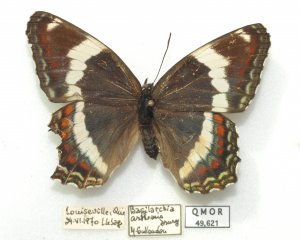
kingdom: Animalia
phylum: Arthropoda
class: Insecta
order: Lepidoptera
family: Nymphalidae
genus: Limenitis
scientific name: Limenitis arthemis
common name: Red-spotted Admiral
